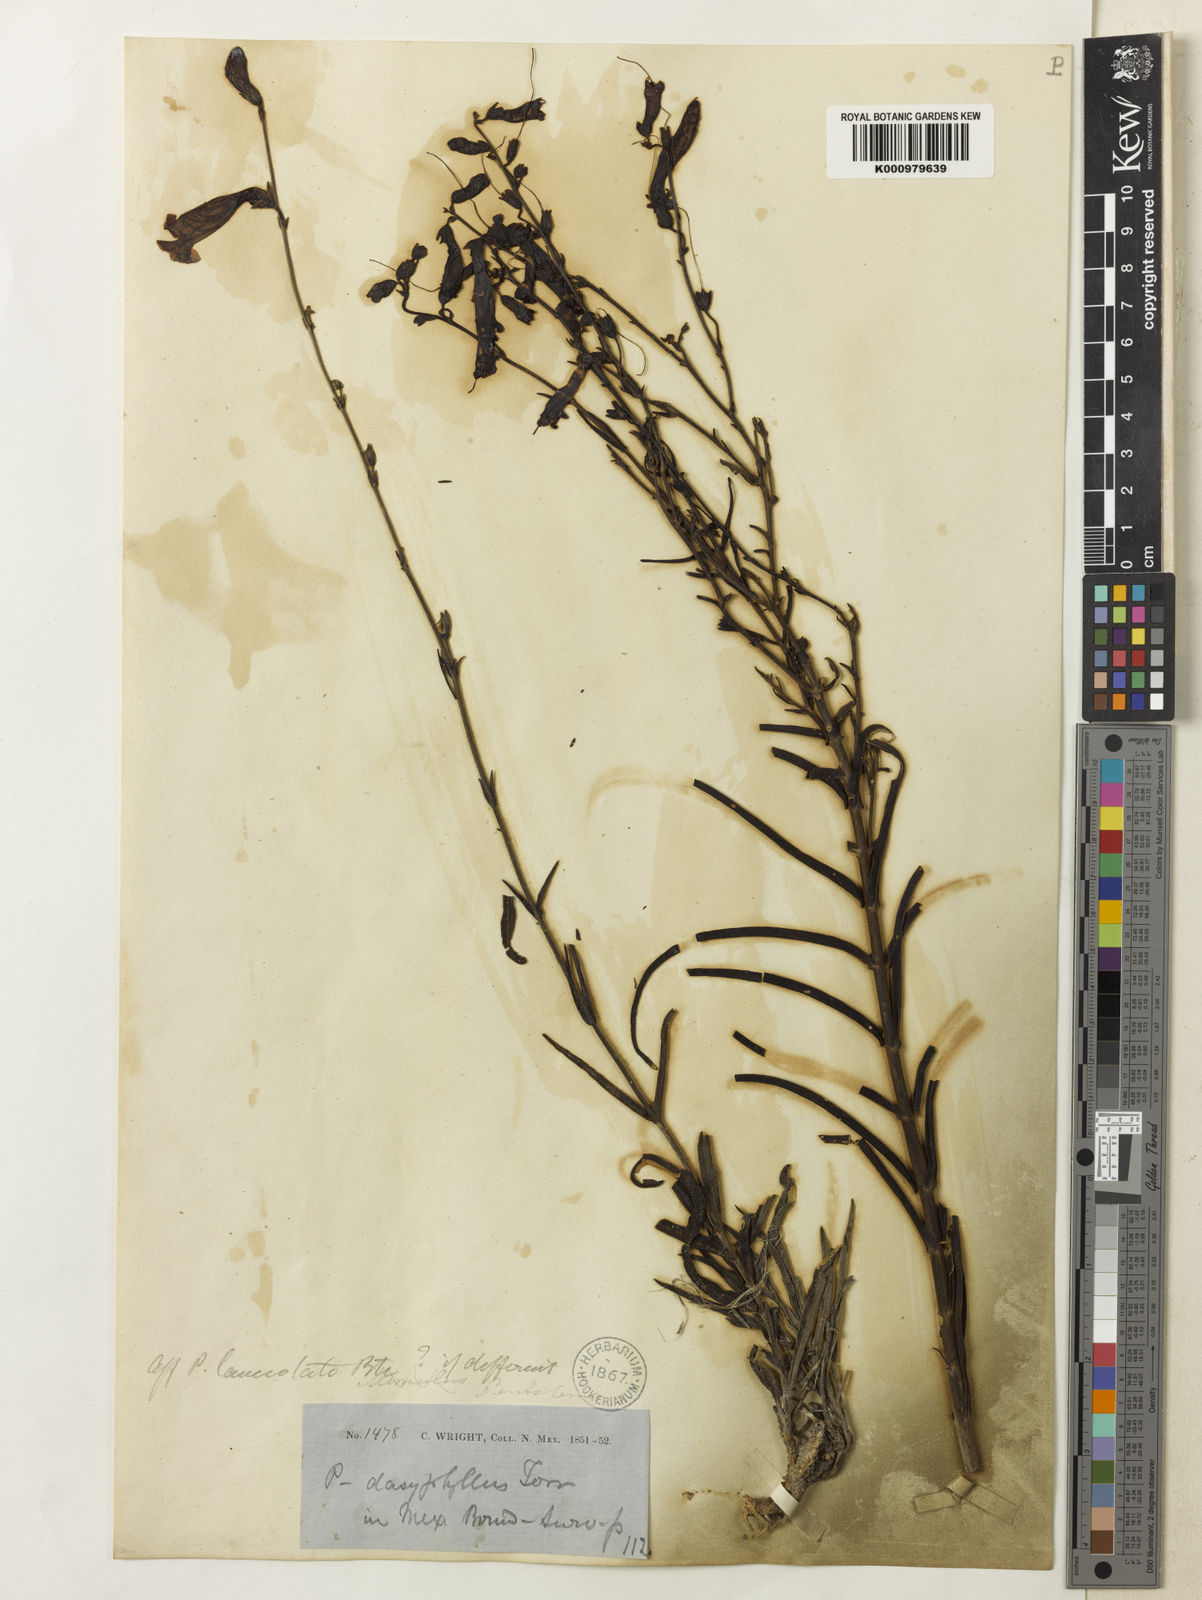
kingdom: Plantae
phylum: Tracheophyta
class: Magnoliopsida
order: Lamiales
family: Plantaginaceae
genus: Penstemon
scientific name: Penstemon stenophyllus
